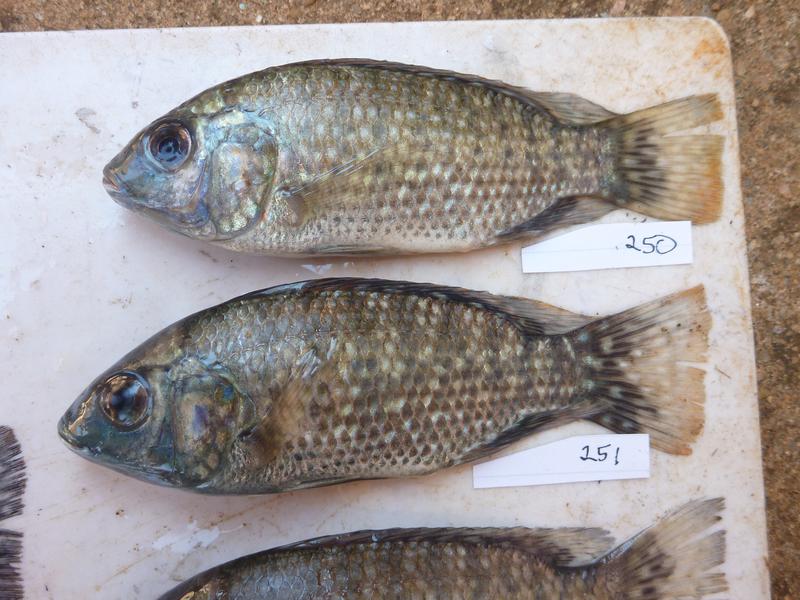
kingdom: Animalia
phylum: Chordata
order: Perciformes
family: Cichlidae
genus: Oreochromis
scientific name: Oreochromis leucostictus
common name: Blue spotted tilapia
